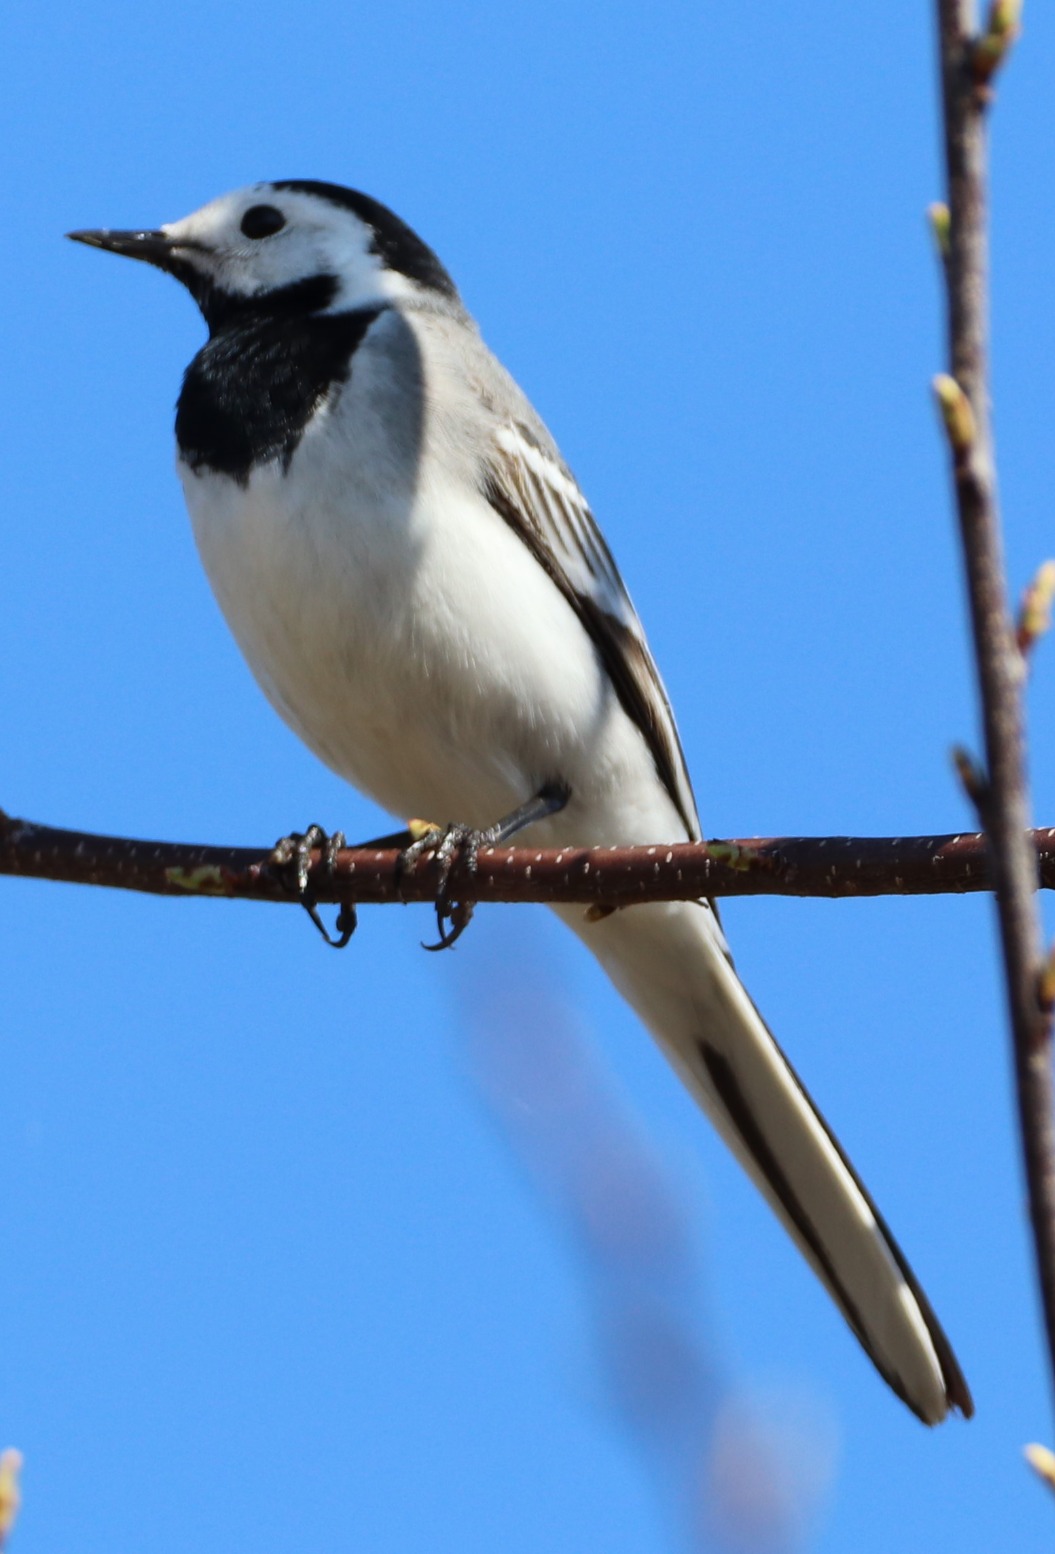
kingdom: Animalia
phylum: Chordata
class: Aves
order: Passeriformes
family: Motacillidae
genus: Motacilla
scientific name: Motacilla alba
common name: Hvid vipstjert
